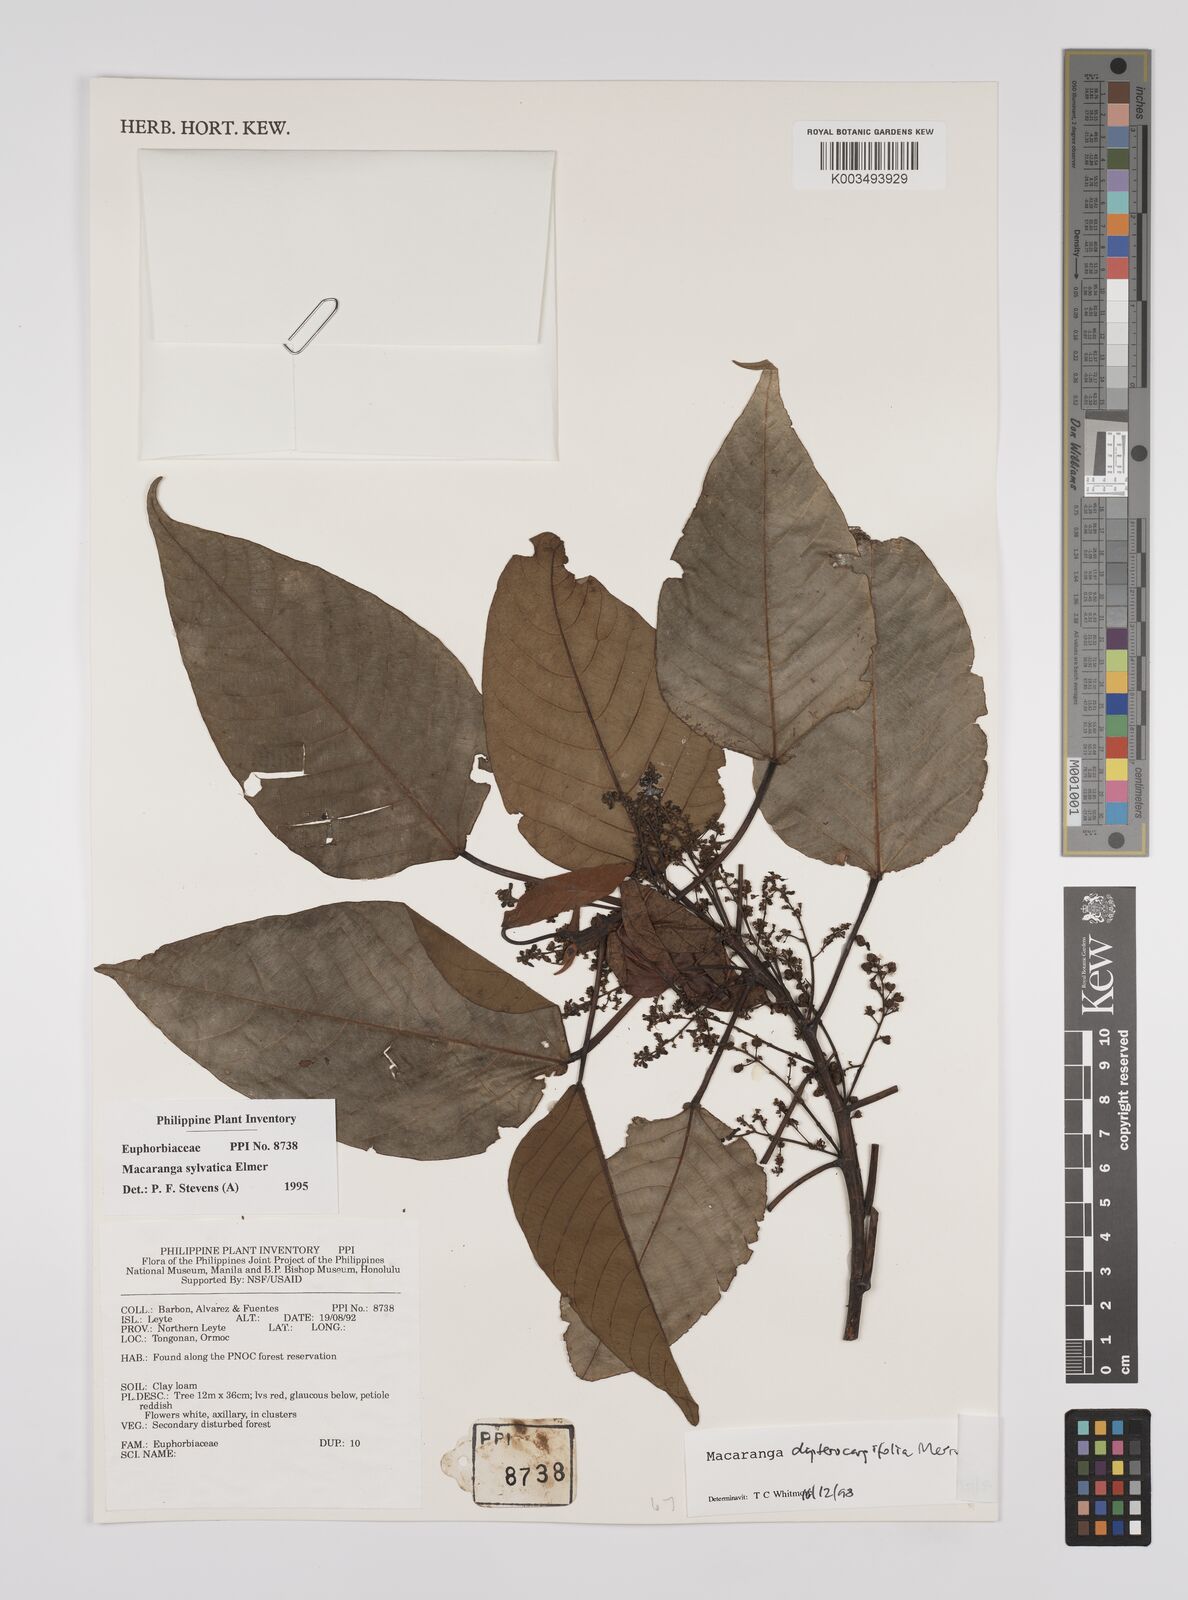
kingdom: Plantae
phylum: Tracheophyta
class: Magnoliopsida
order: Malpighiales
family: Euphorbiaceae
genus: Macaranga
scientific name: Macaranga sinensis
